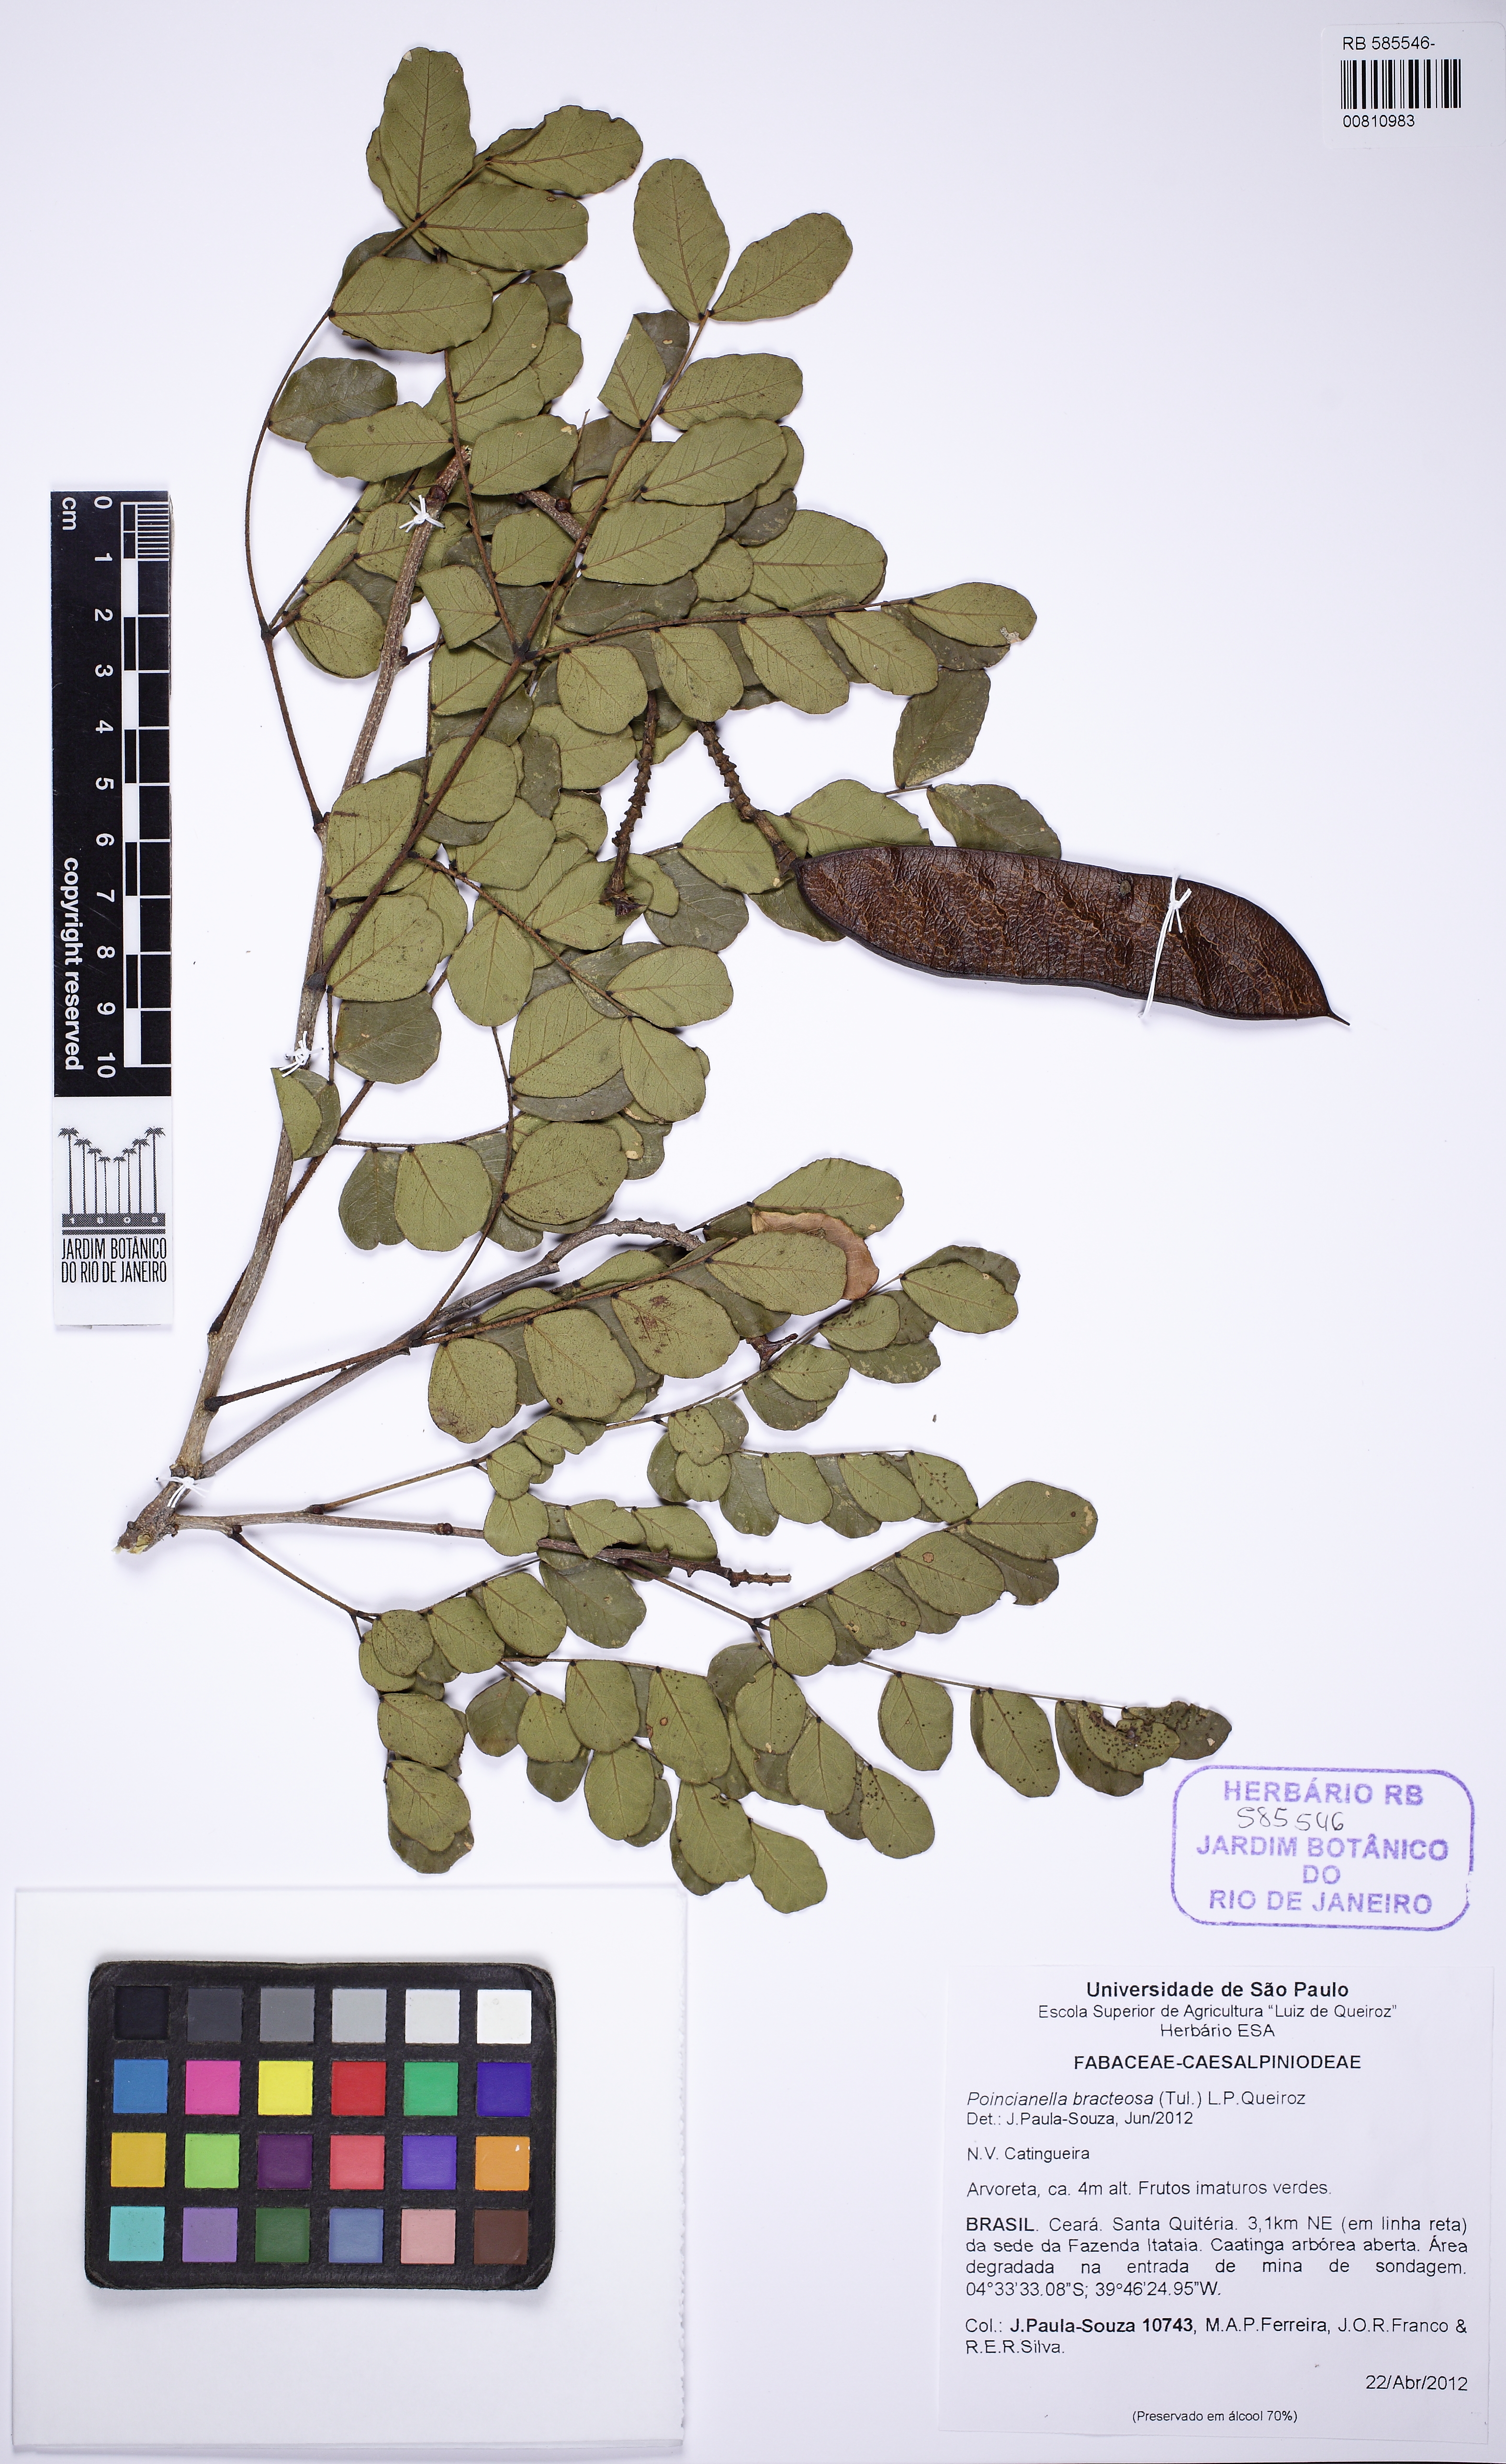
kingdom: Plantae
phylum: Tracheophyta
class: Magnoliopsida
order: Fabales
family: Fabaceae
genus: Cenostigma
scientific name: Cenostigma bracteosum
